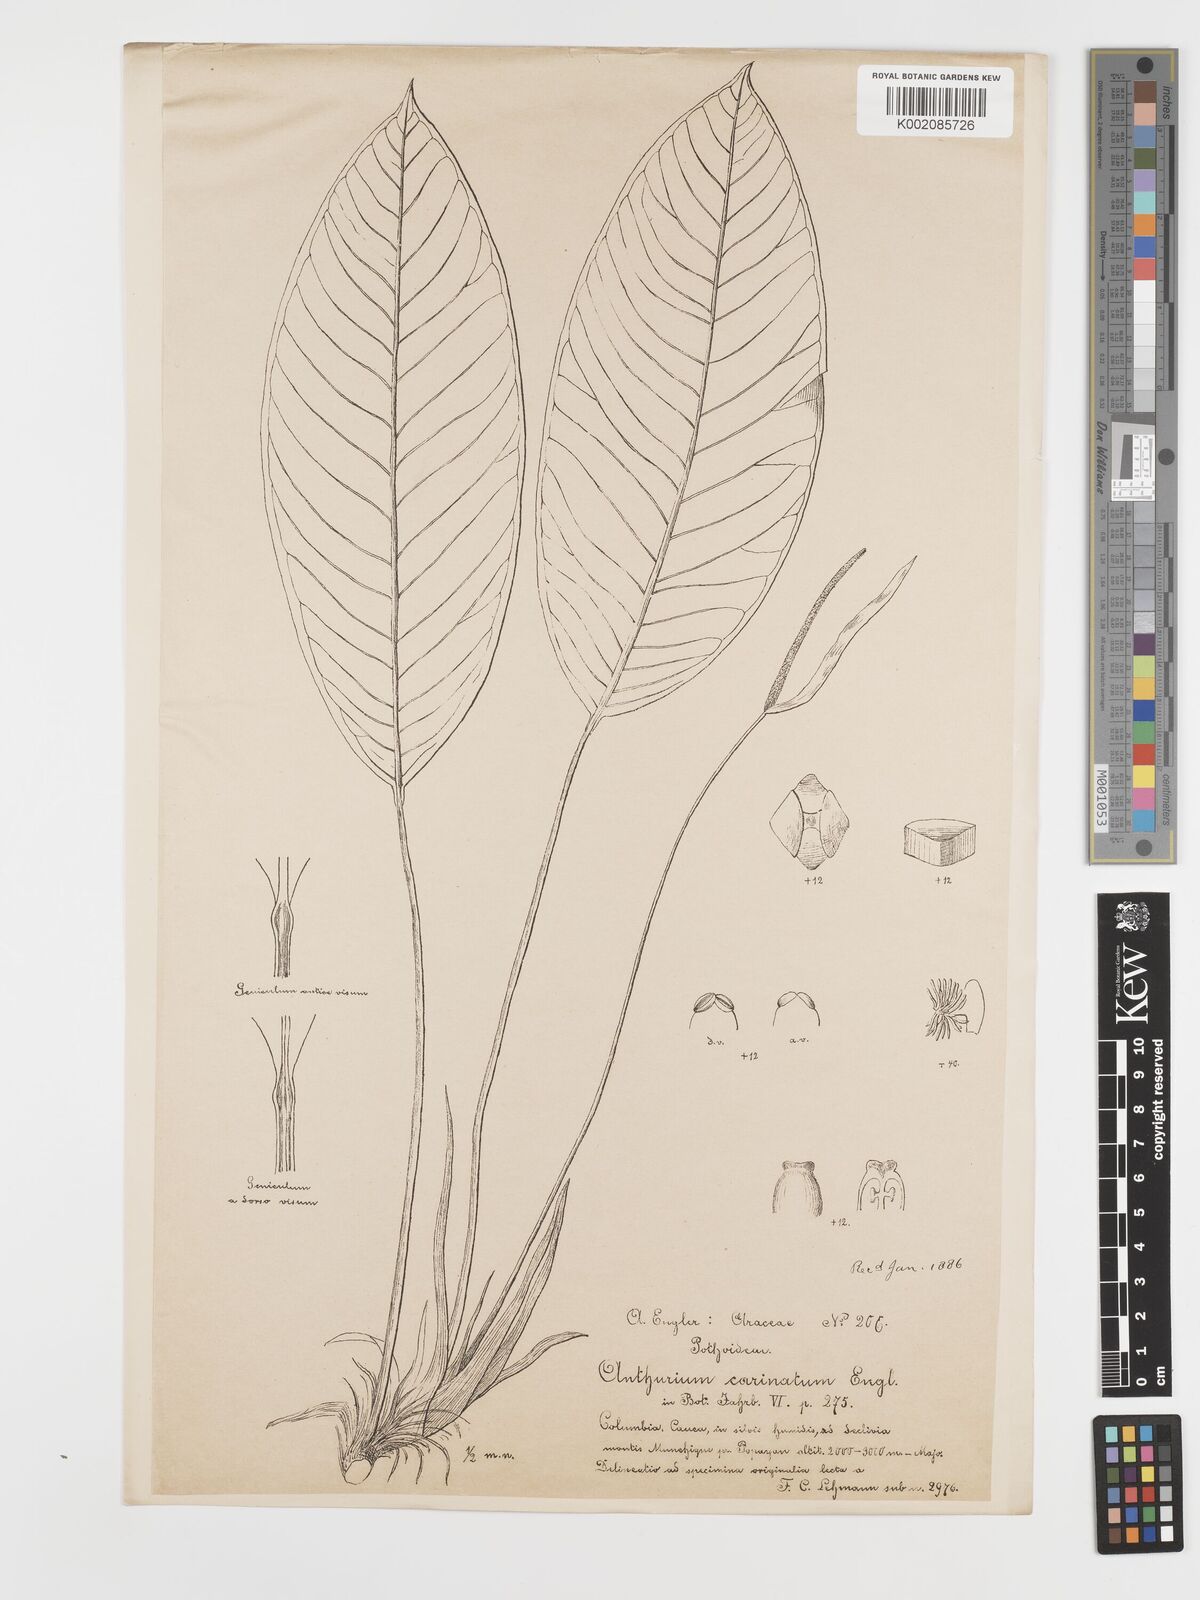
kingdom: Plantae
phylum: Tracheophyta
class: Liliopsida
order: Alismatales
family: Araceae
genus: Anthurium
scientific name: Anthurium carinatum
